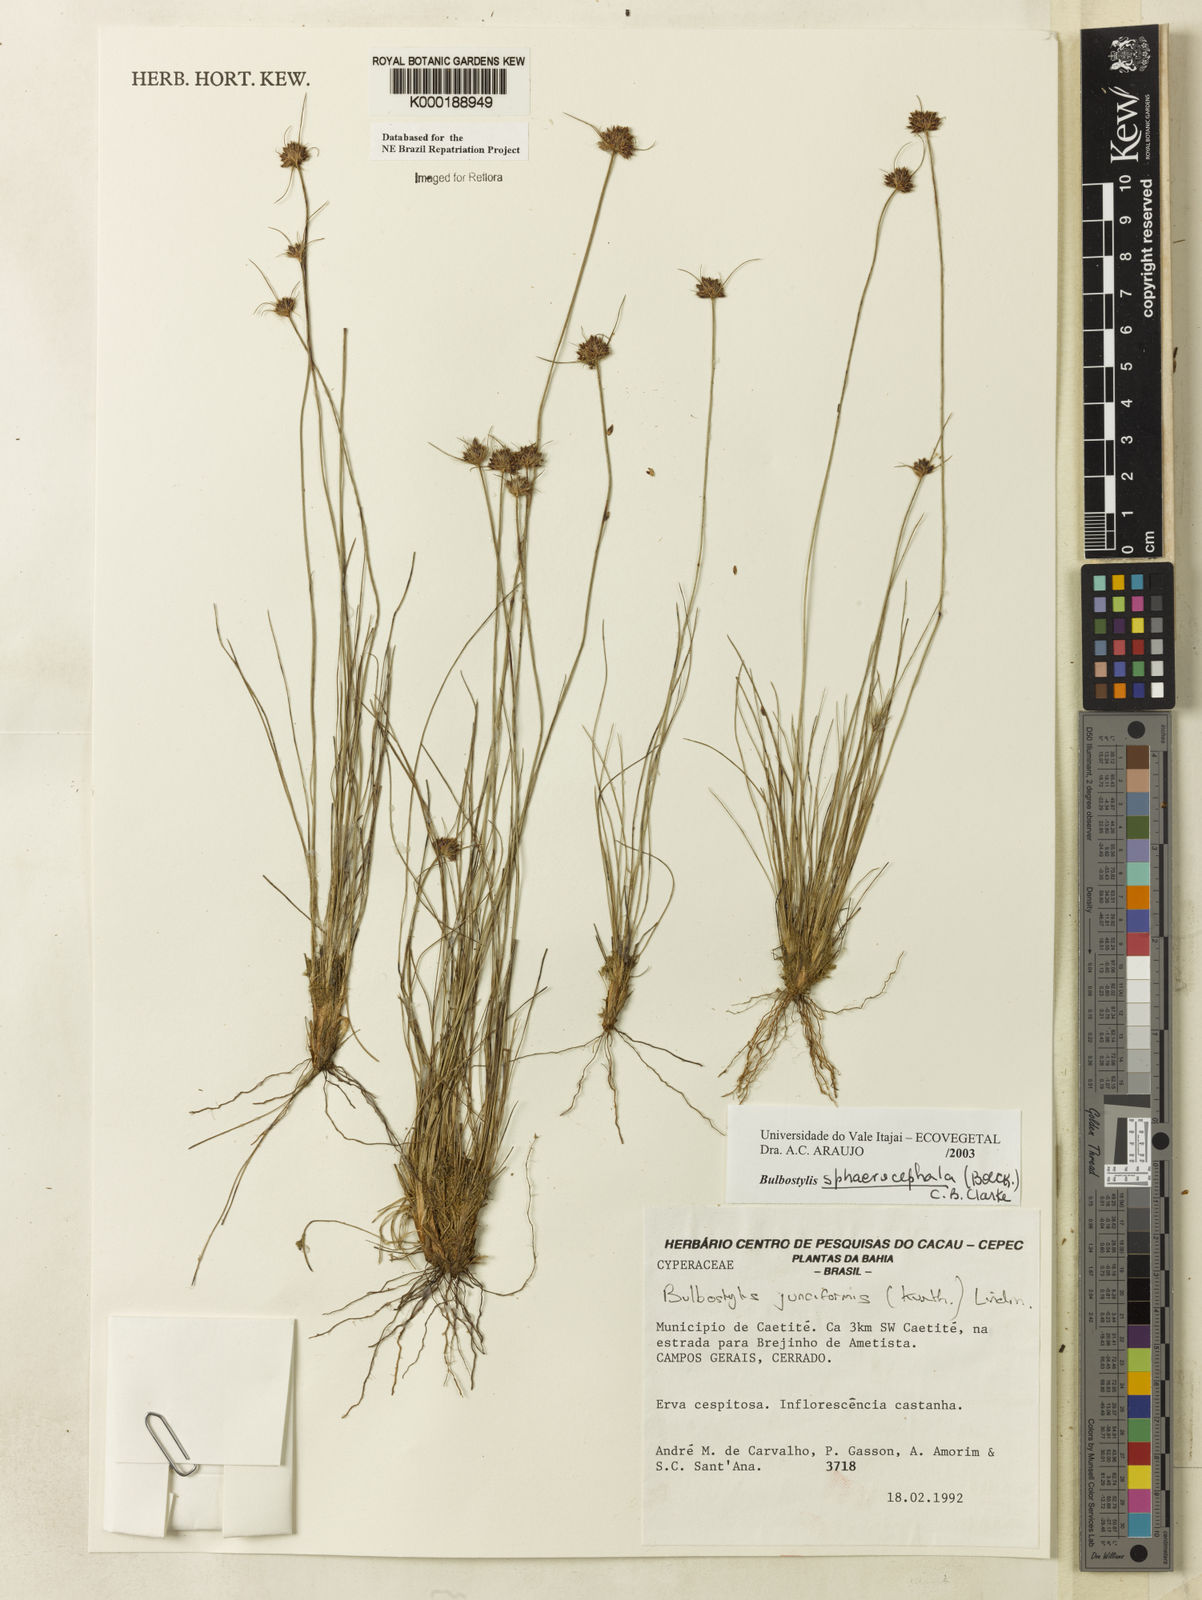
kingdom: Plantae
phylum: Tracheophyta
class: Liliopsida
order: Poales
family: Cyperaceae
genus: Bulbostylis
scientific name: Bulbostylis sphaerocephala
